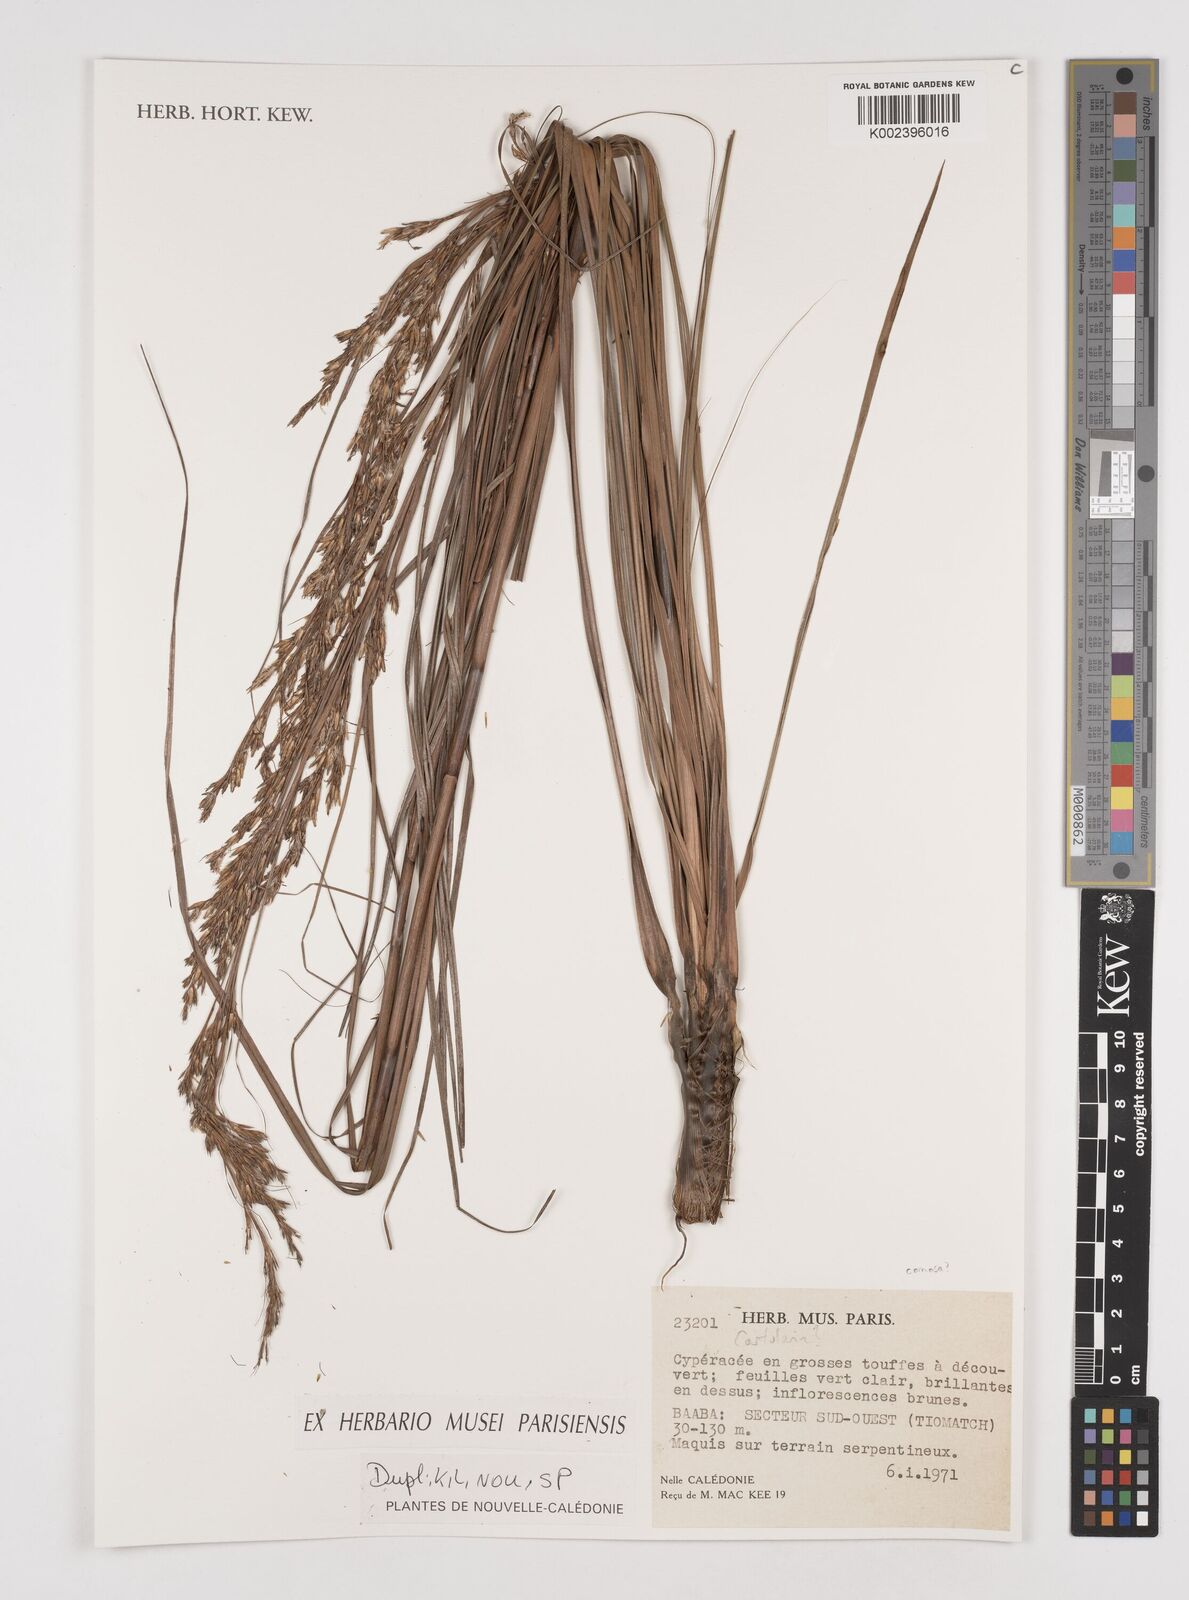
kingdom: Plantae
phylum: Tracheophyta
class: Liliopsida
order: Poales
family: Cyperaceae
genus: Tetraria
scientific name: Tetraria
